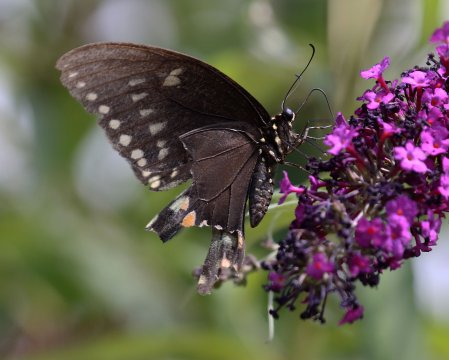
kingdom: Animalia
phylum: Arthropoda
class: Insecta
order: Lepidoptera
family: Papilionidae
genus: Pterourus
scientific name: Pterourus troilus
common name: Spicebush Swallowtail
